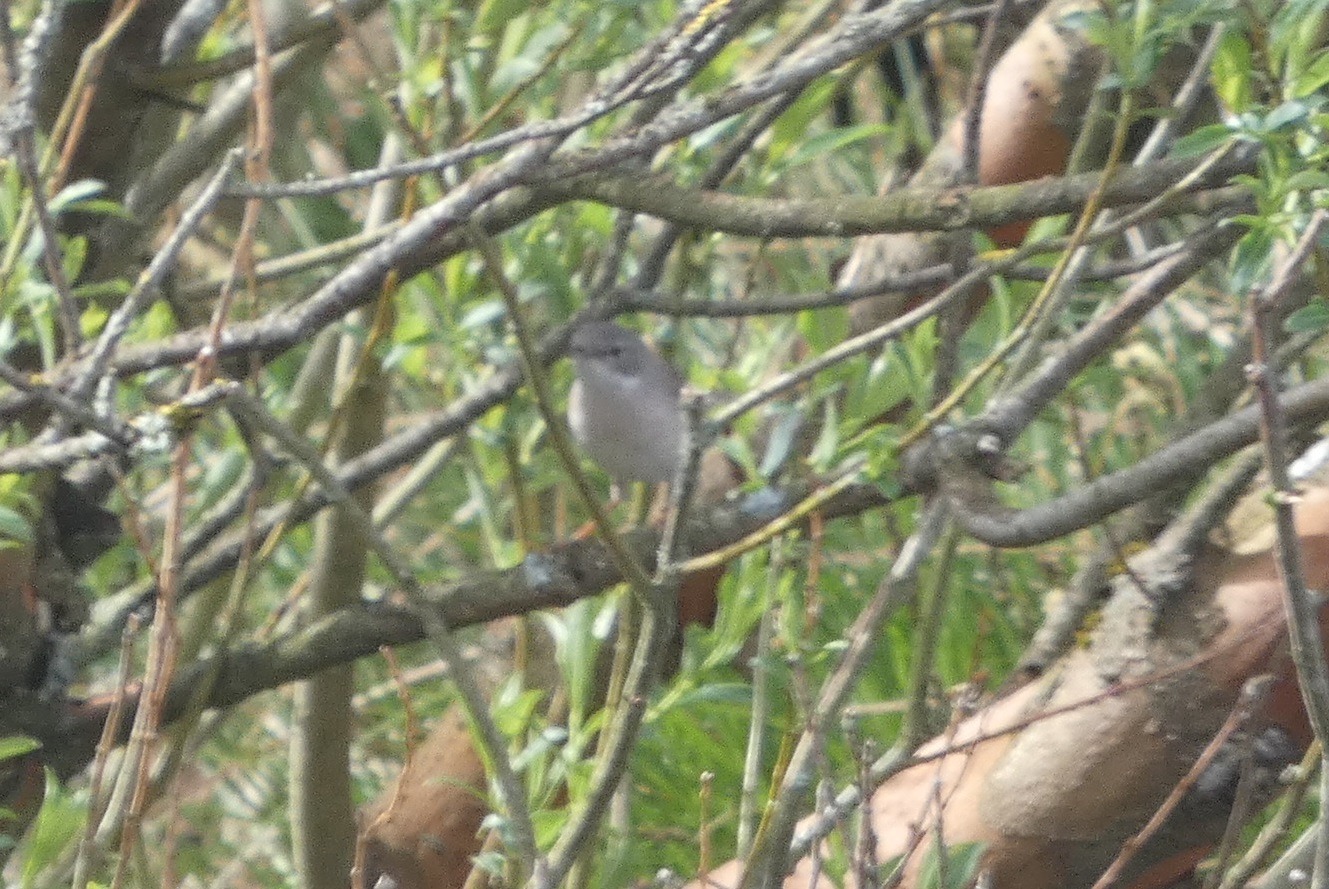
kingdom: Animalia
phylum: Chordata
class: Aves
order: Passeriformes
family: Sylviidae
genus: Sylvia
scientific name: Sylvia curruca
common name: Gærdesanger
